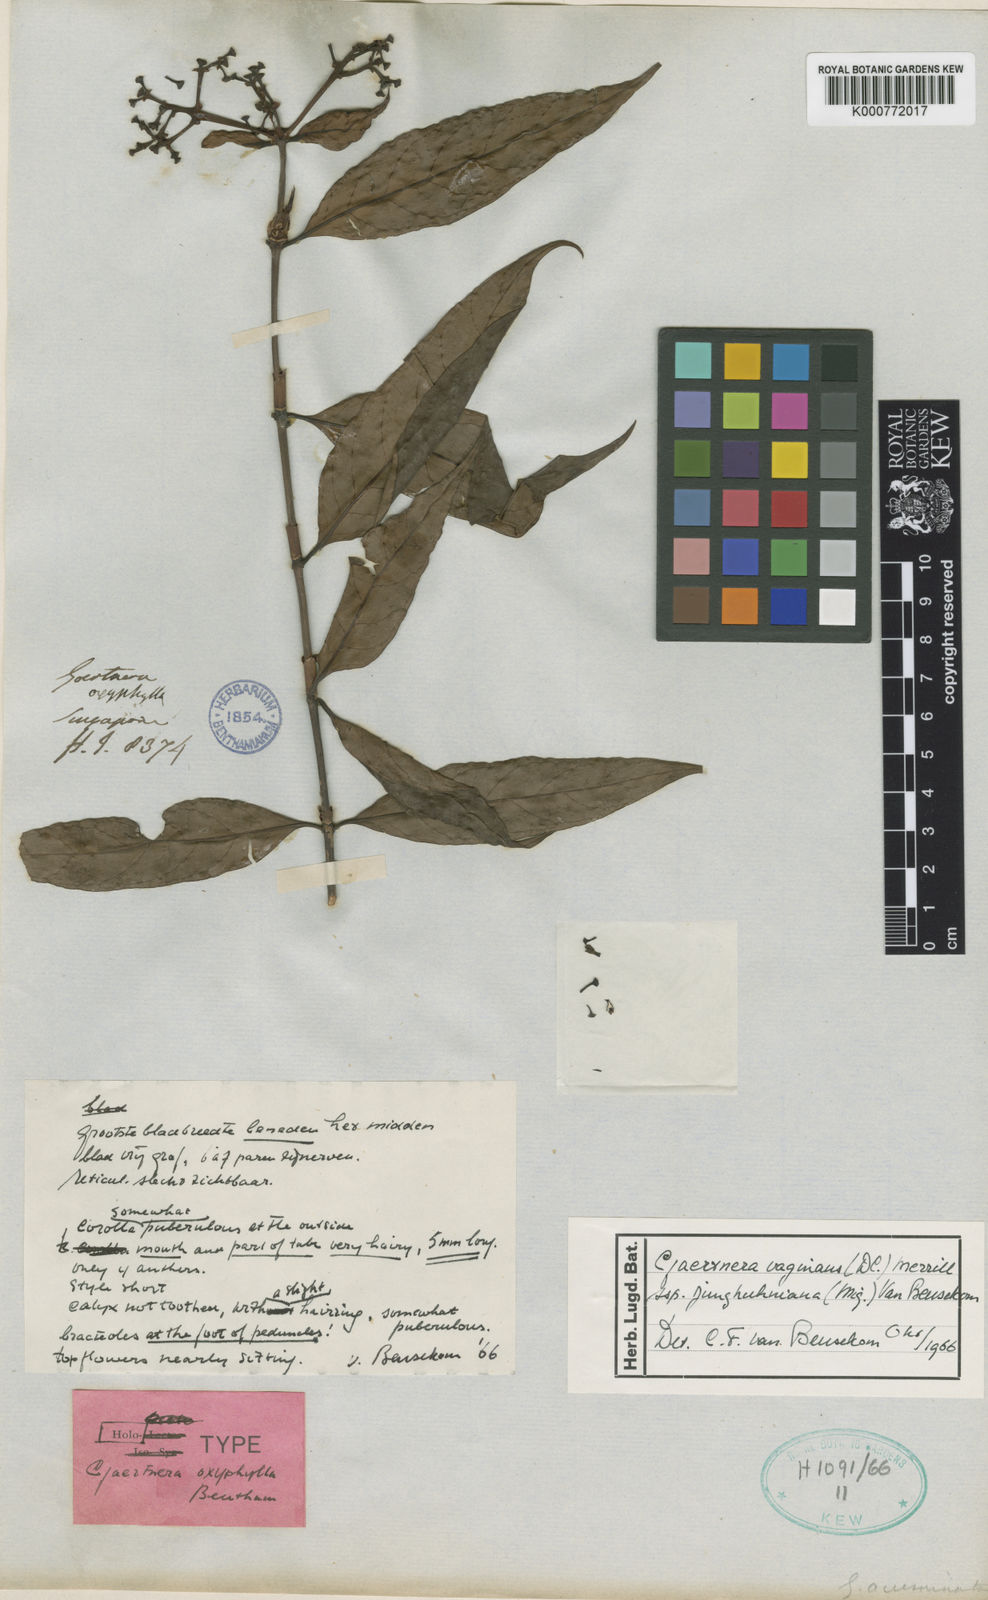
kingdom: Plantae
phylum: Tracheophyta
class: Magnoliopsida
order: Gentianales
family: Rubiaceae
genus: Gaertnera
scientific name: Gaertnera junghuhniana
